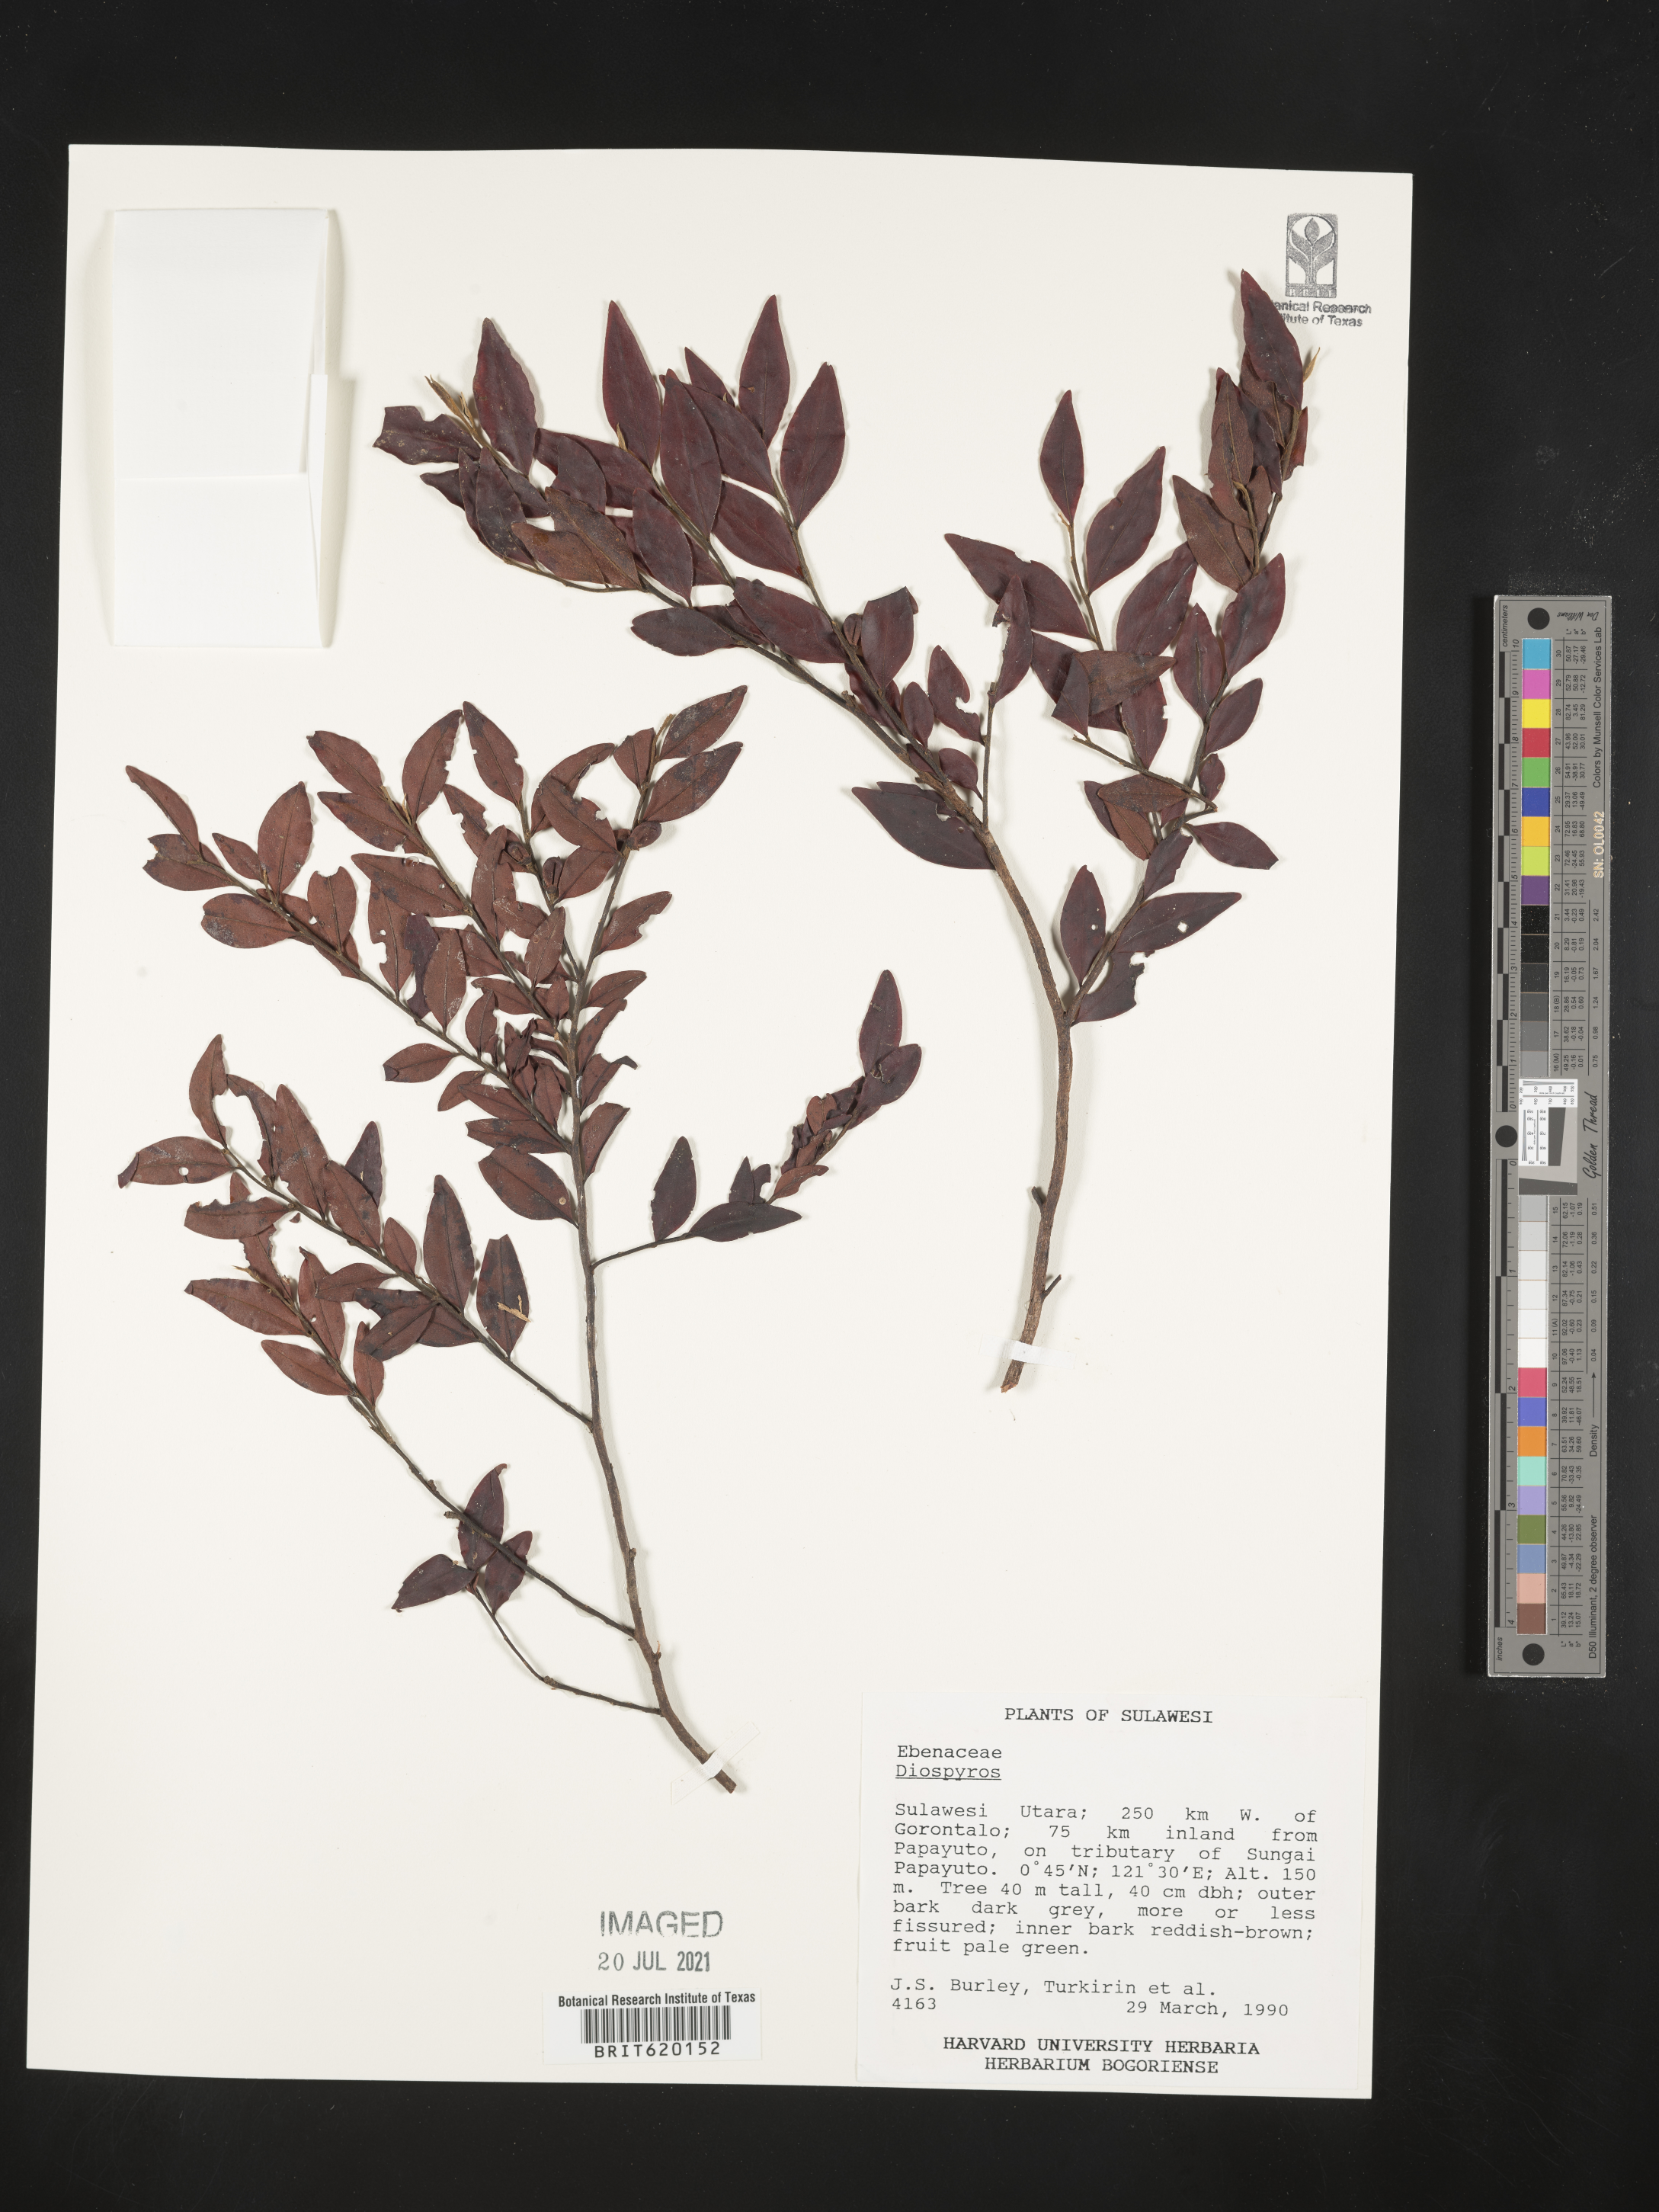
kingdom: Plantae
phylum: Tracheophyta
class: Magnoliopsida
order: Ericales
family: Ebenaceae
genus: Diospyros
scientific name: Diospyros
